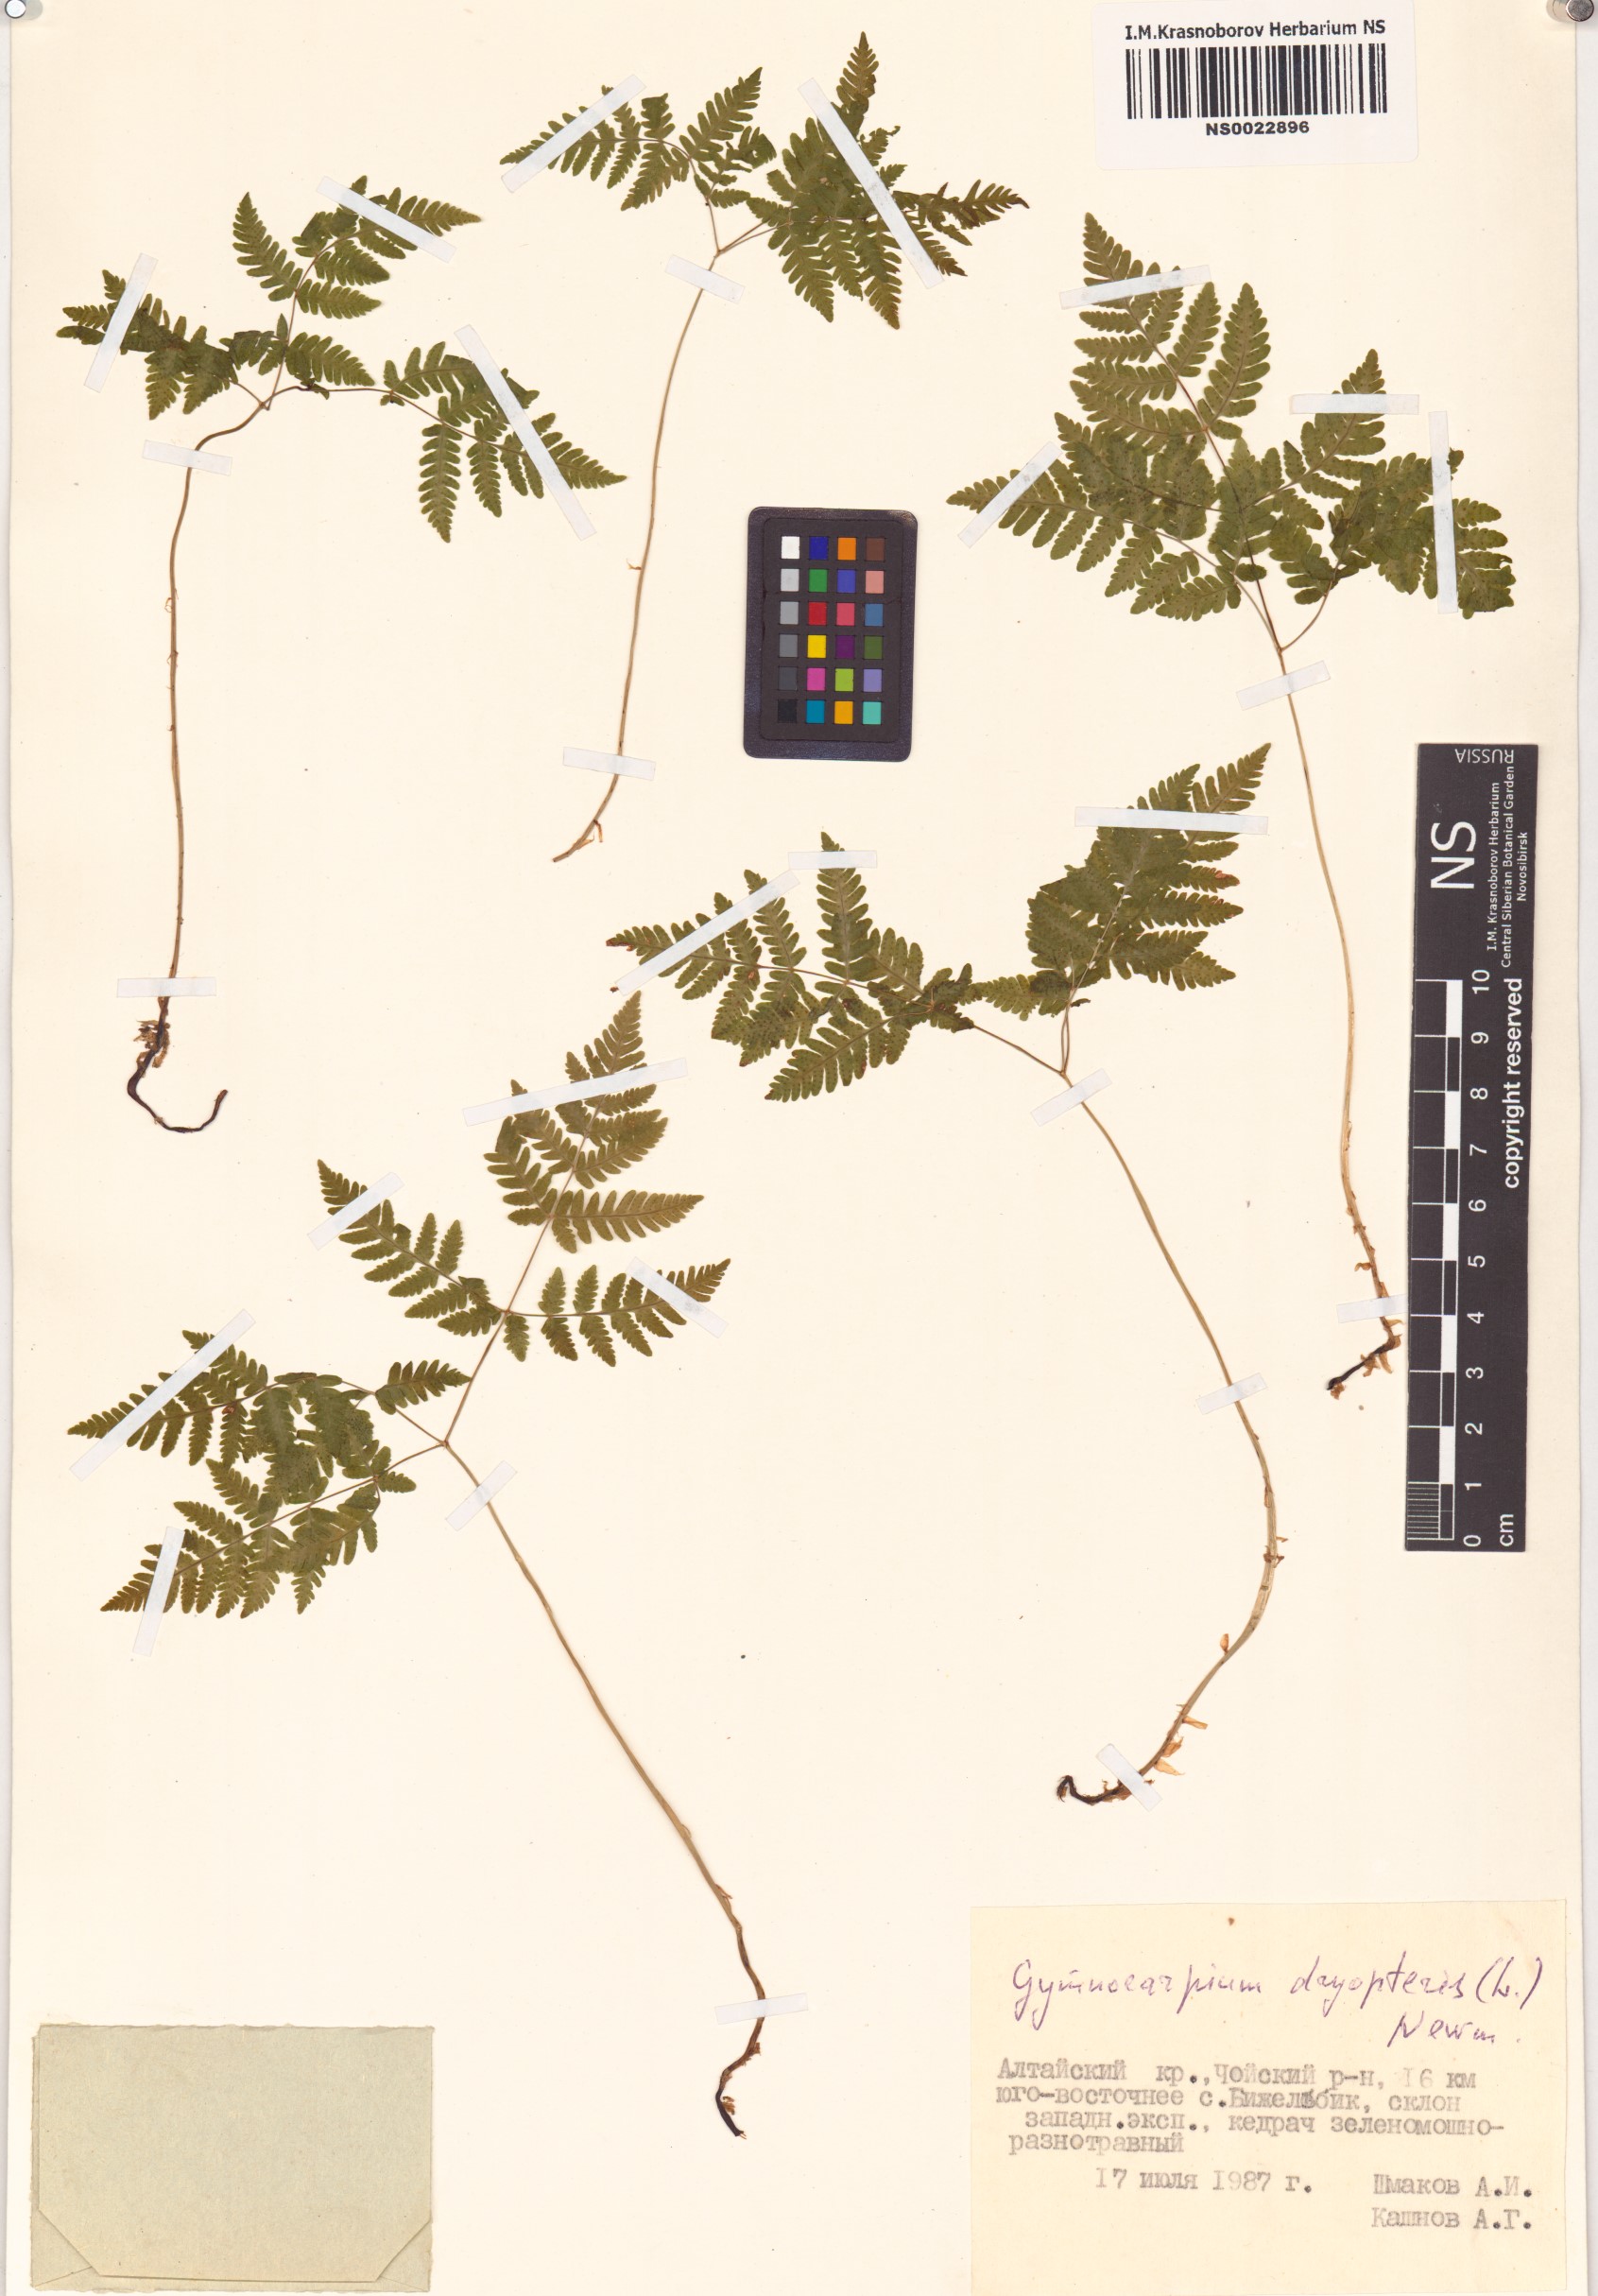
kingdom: Plantae
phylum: Tracheophyta
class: Polypodiopsida
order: Polypodiales
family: Cystopteridaceae
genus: Gymnocarpium
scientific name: Gymnocarpium dryopteris
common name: Oak fern
